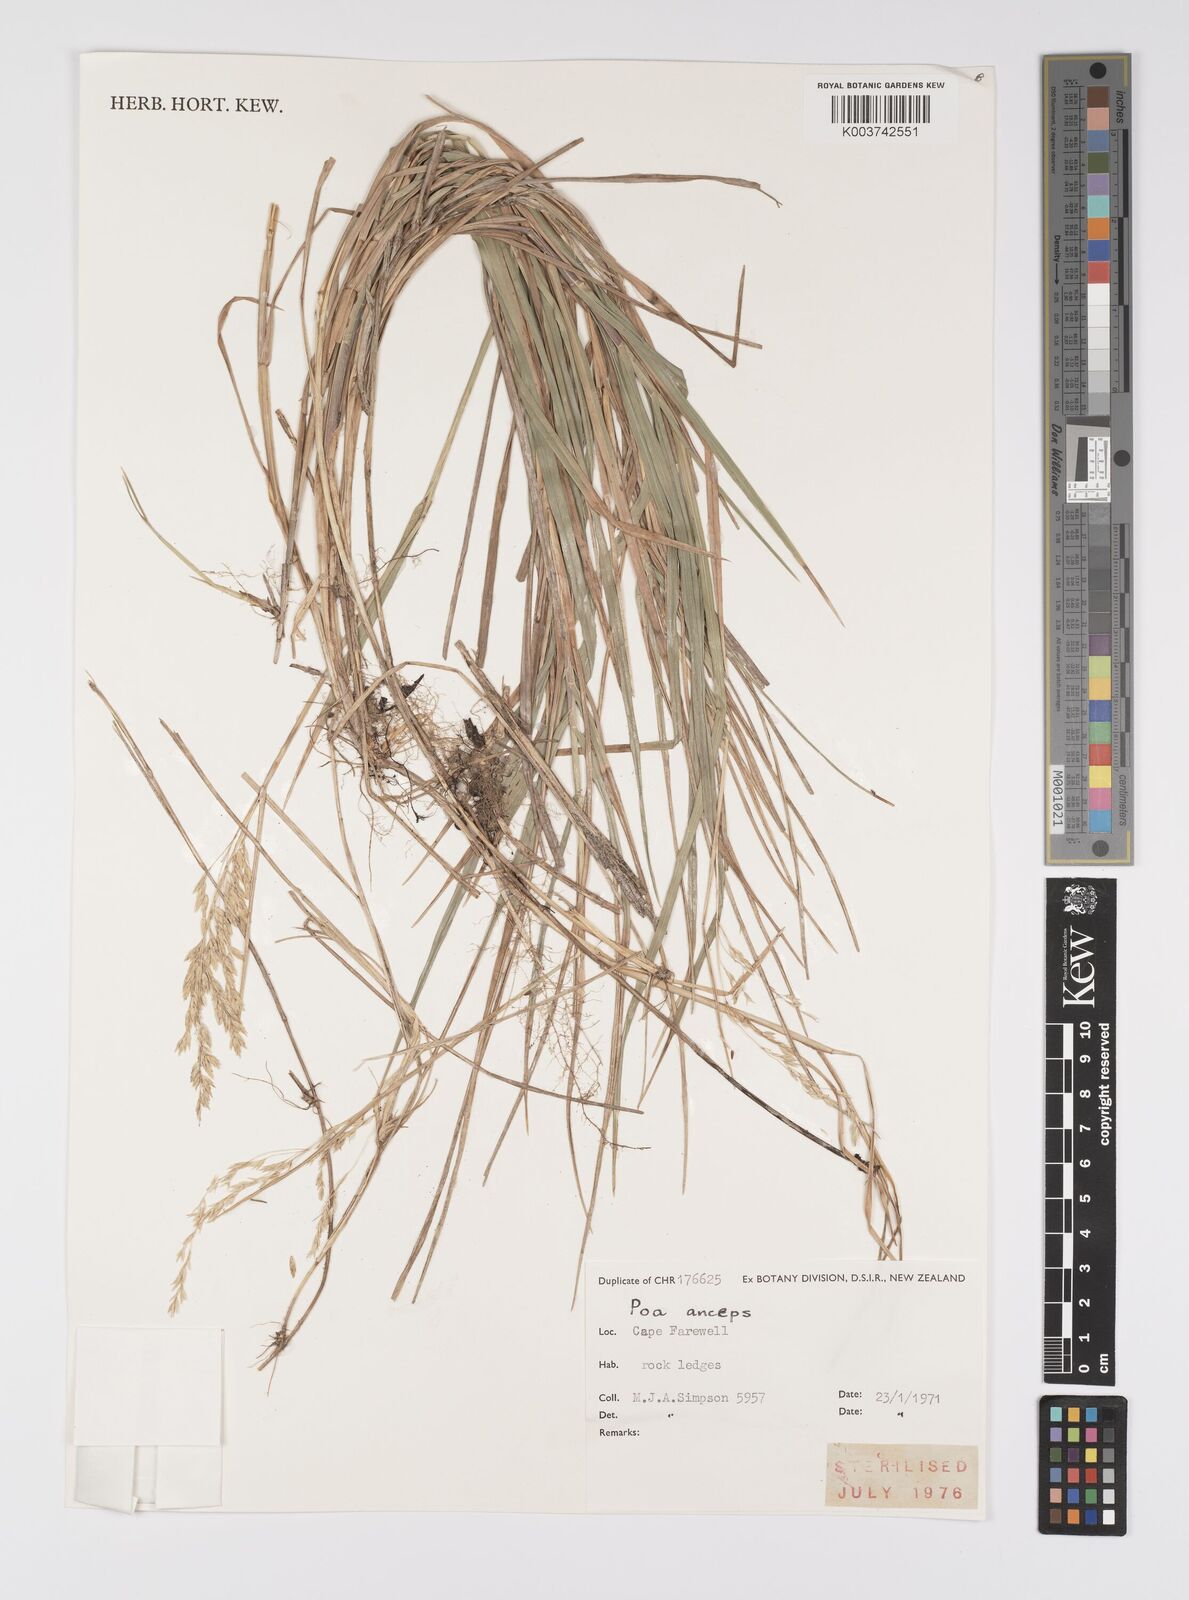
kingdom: Plantae
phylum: Tracheophyta
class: Liliopsida
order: Poales
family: Poaceae
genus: Poa
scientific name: Poa anceps
